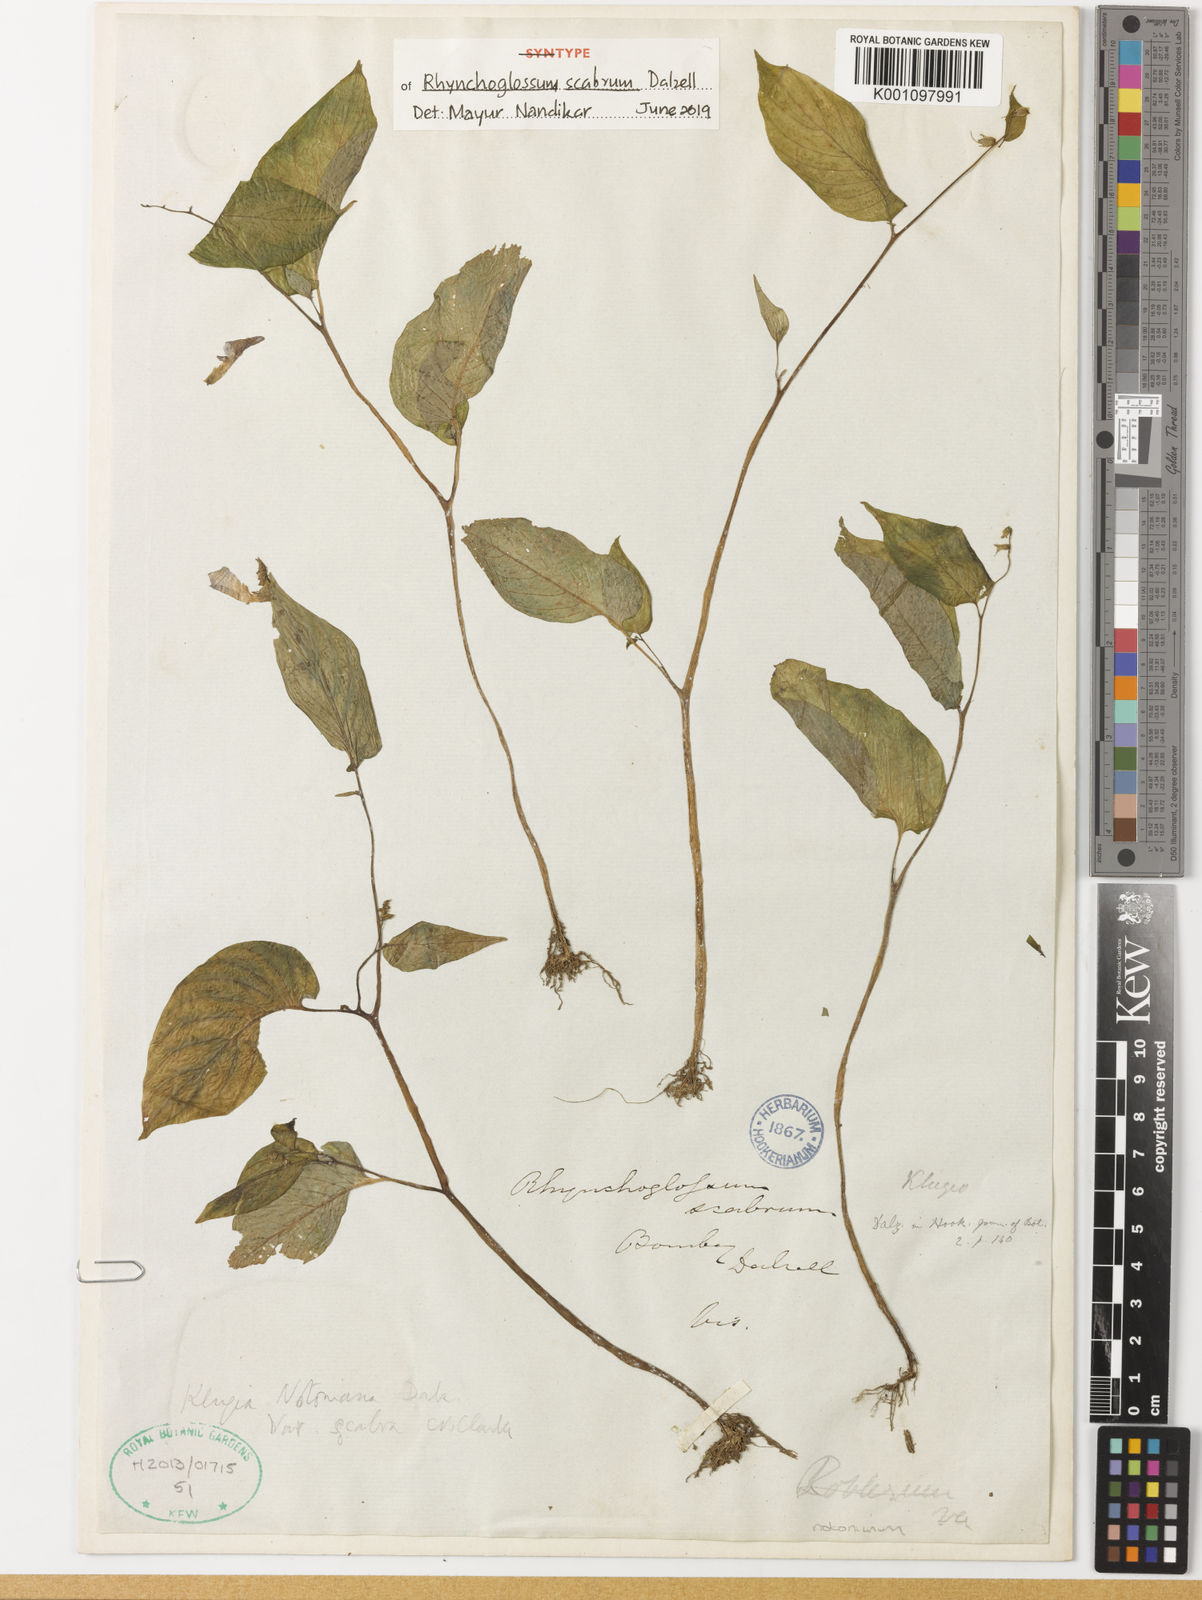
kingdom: Plantae
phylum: Tracheophyta
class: Magnoliopsida
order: Lamiales
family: Gesneriaceae
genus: Rhynchoglossum
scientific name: Rhynchoglossum notonianum
